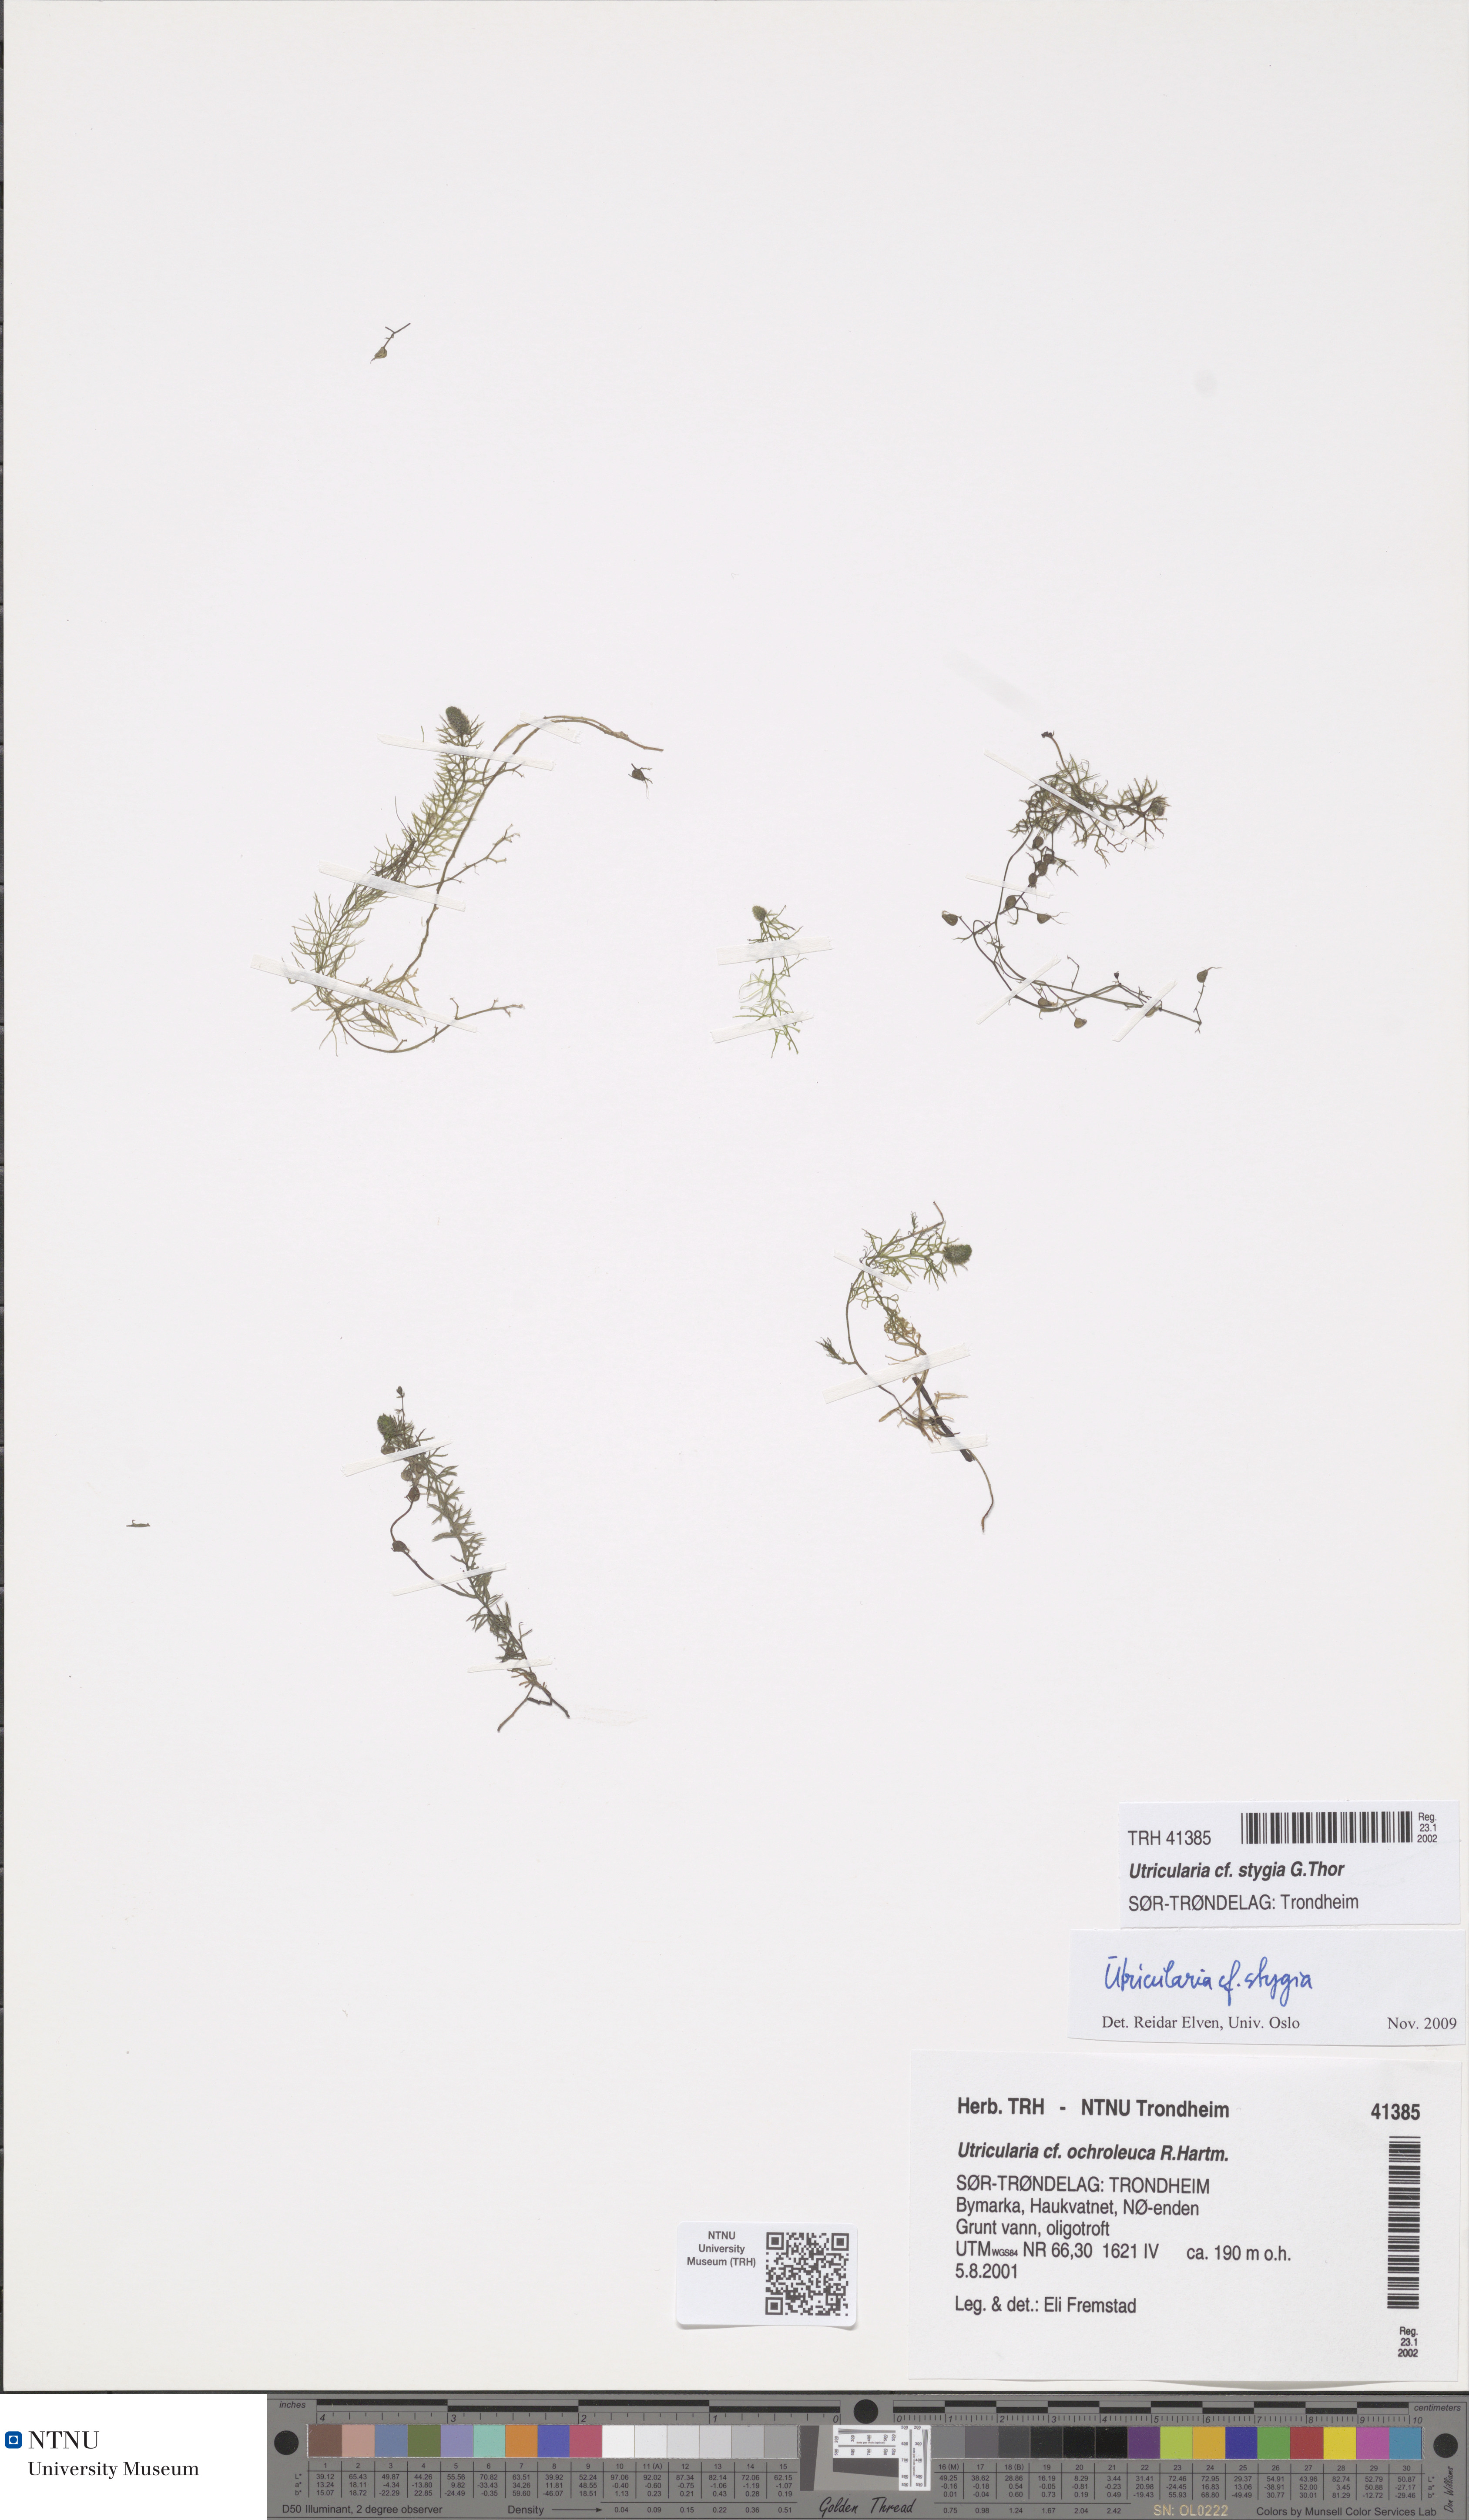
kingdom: Plantae
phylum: Tracheophyta
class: Magnoliopsida
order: Lamiales
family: Lentibulariaceae
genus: Utricularia
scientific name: Utricularia ochroleuca
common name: Pale bladderwort
